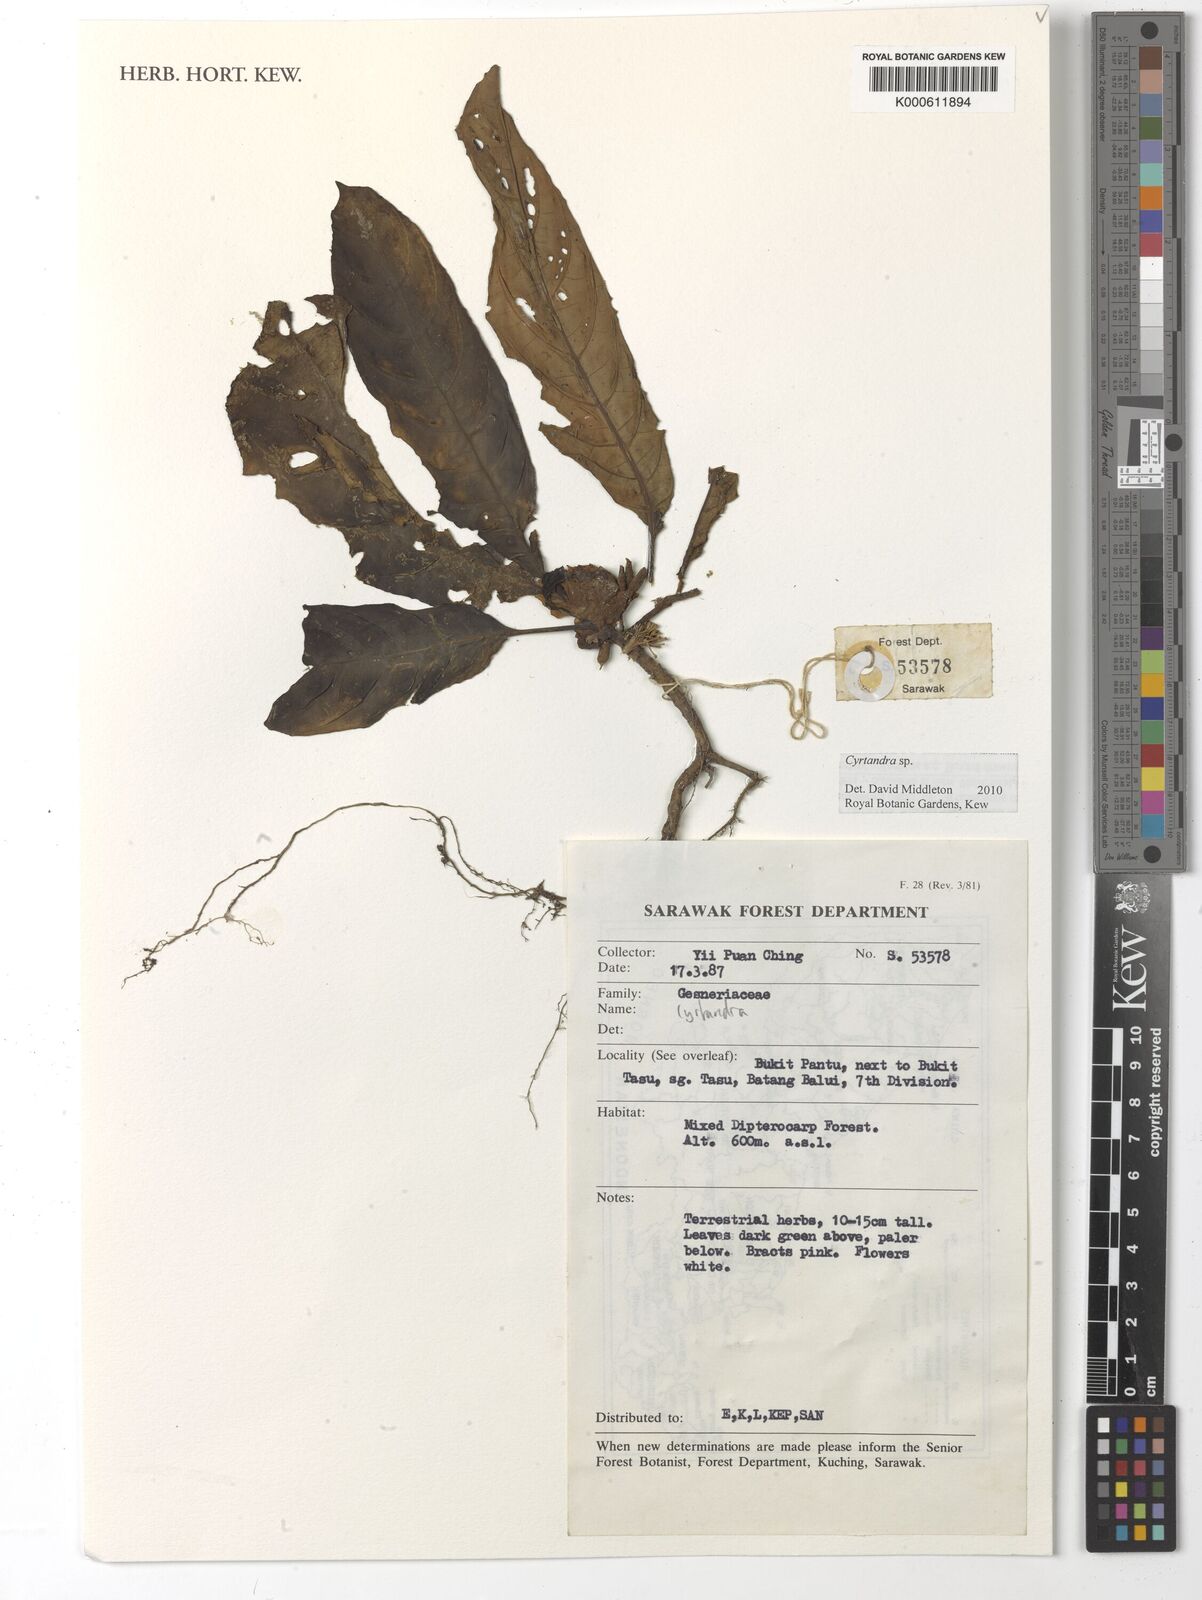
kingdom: Plantae
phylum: Tracheophyta
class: Magnoliopsida
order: Lamiales
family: Gesneriaceae
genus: Cyrtandra
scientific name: Cyrtandra
